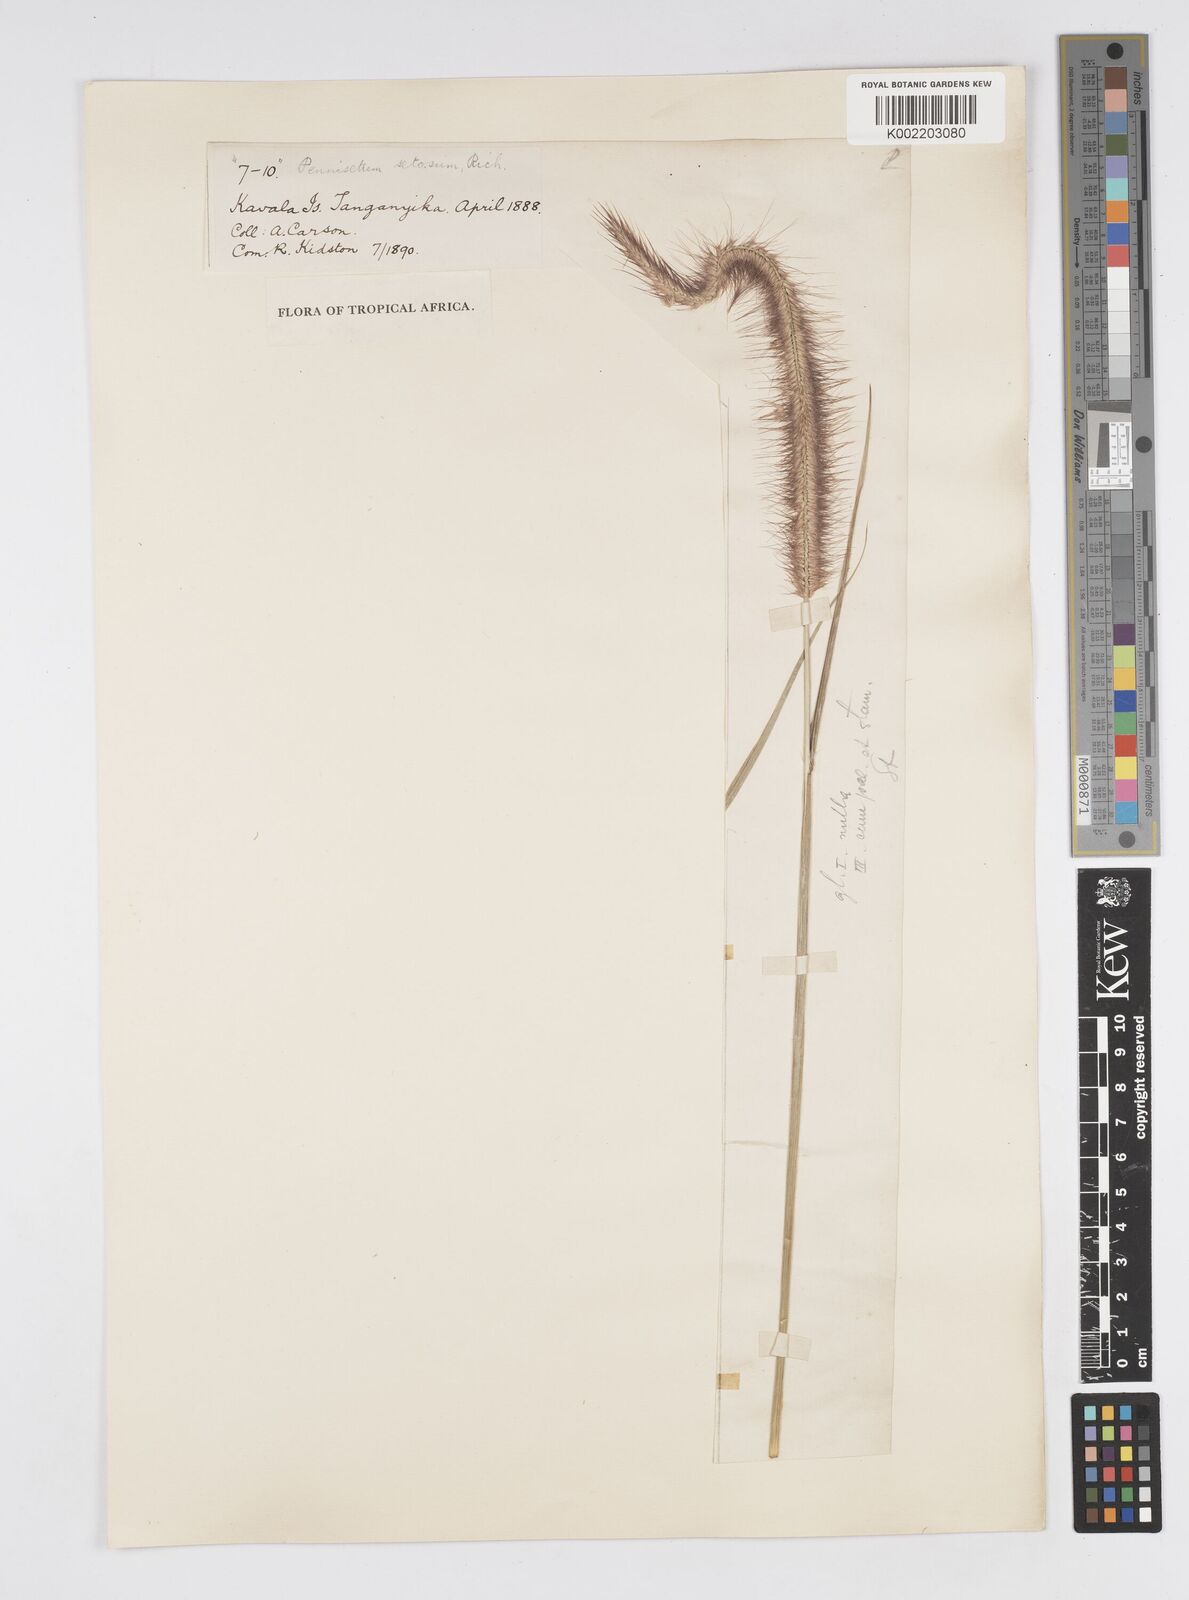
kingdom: Plantae
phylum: Tracheophyta
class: Liliopsida
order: Poales
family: Poaceae
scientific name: Poaceae
